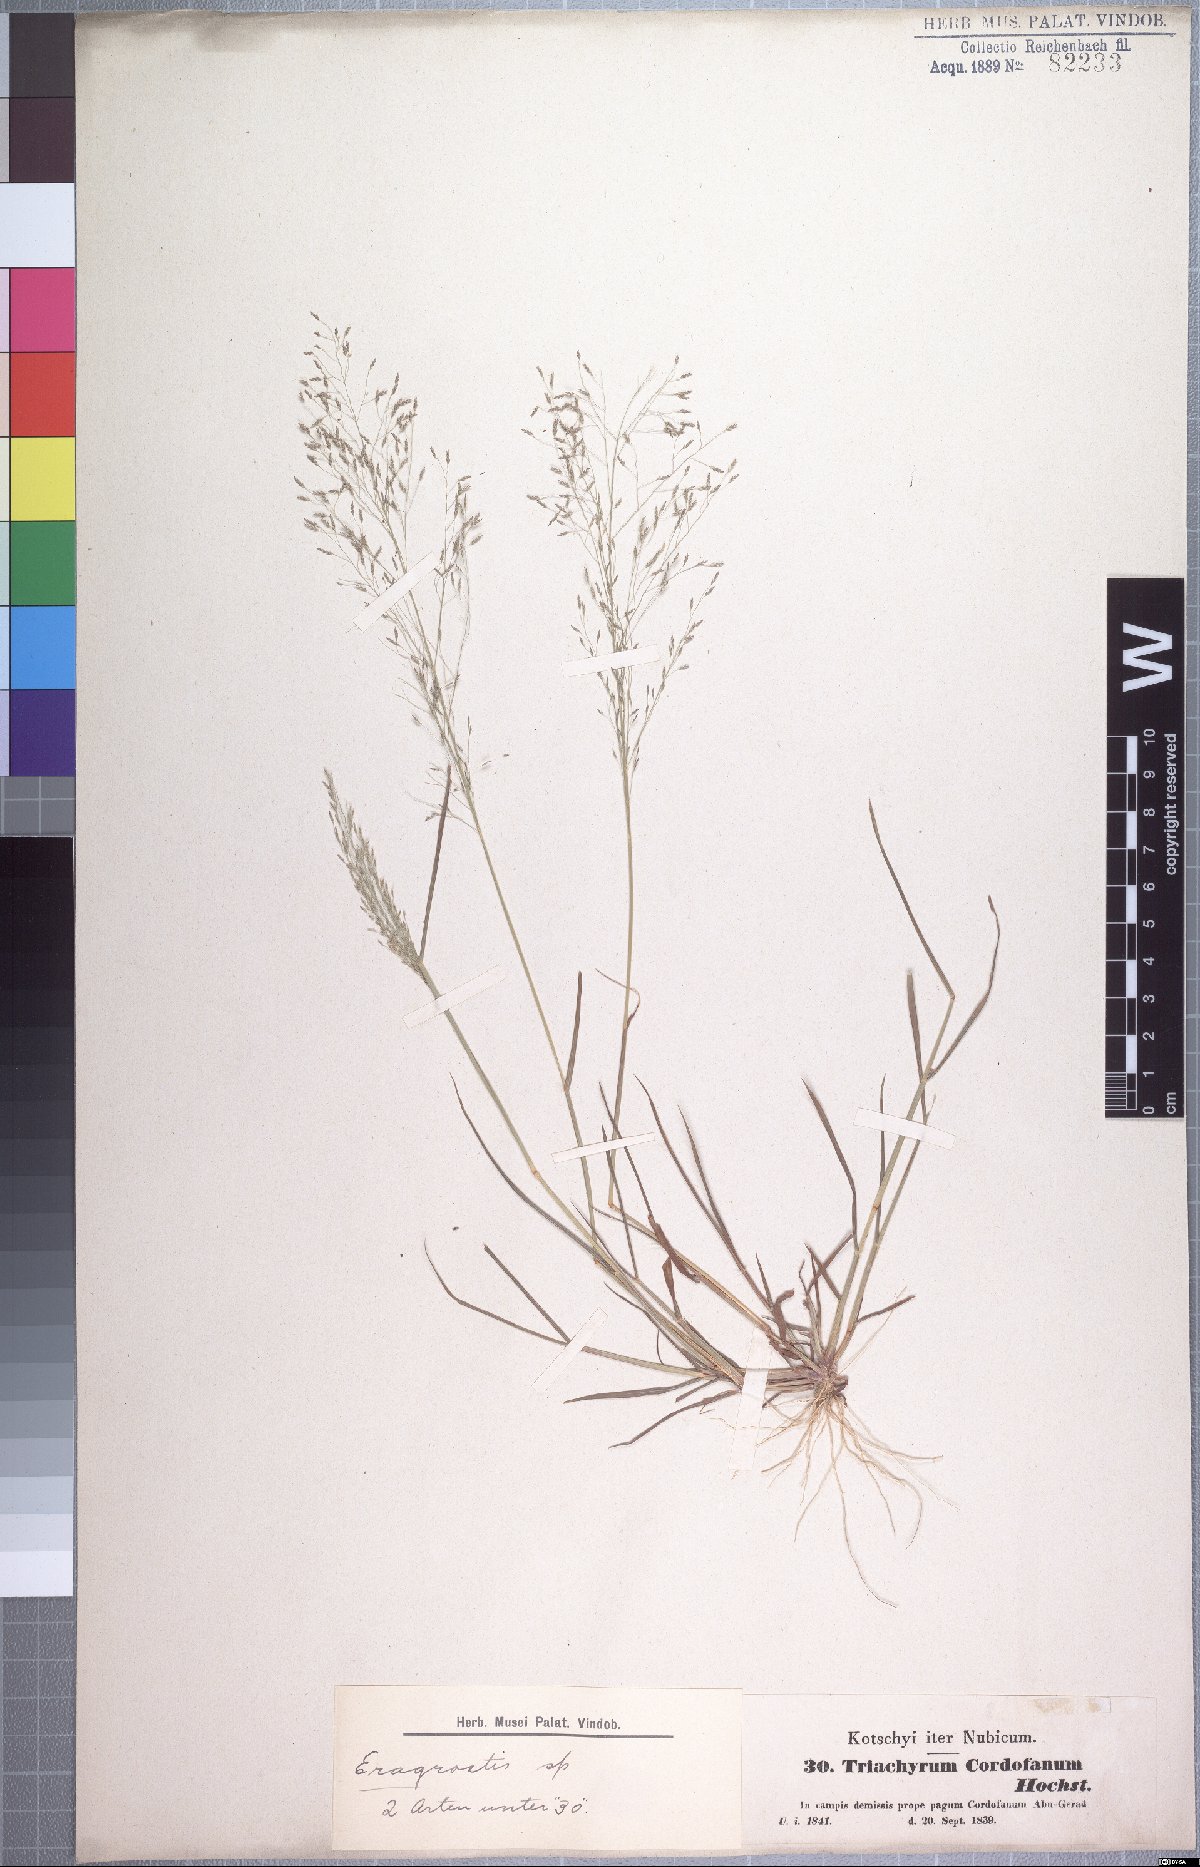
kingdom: Plantae
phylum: Tracheophyta
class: Liliopsida
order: Poales
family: Poaceae
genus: Sporobolus
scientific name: Sporobolus cordofanus
